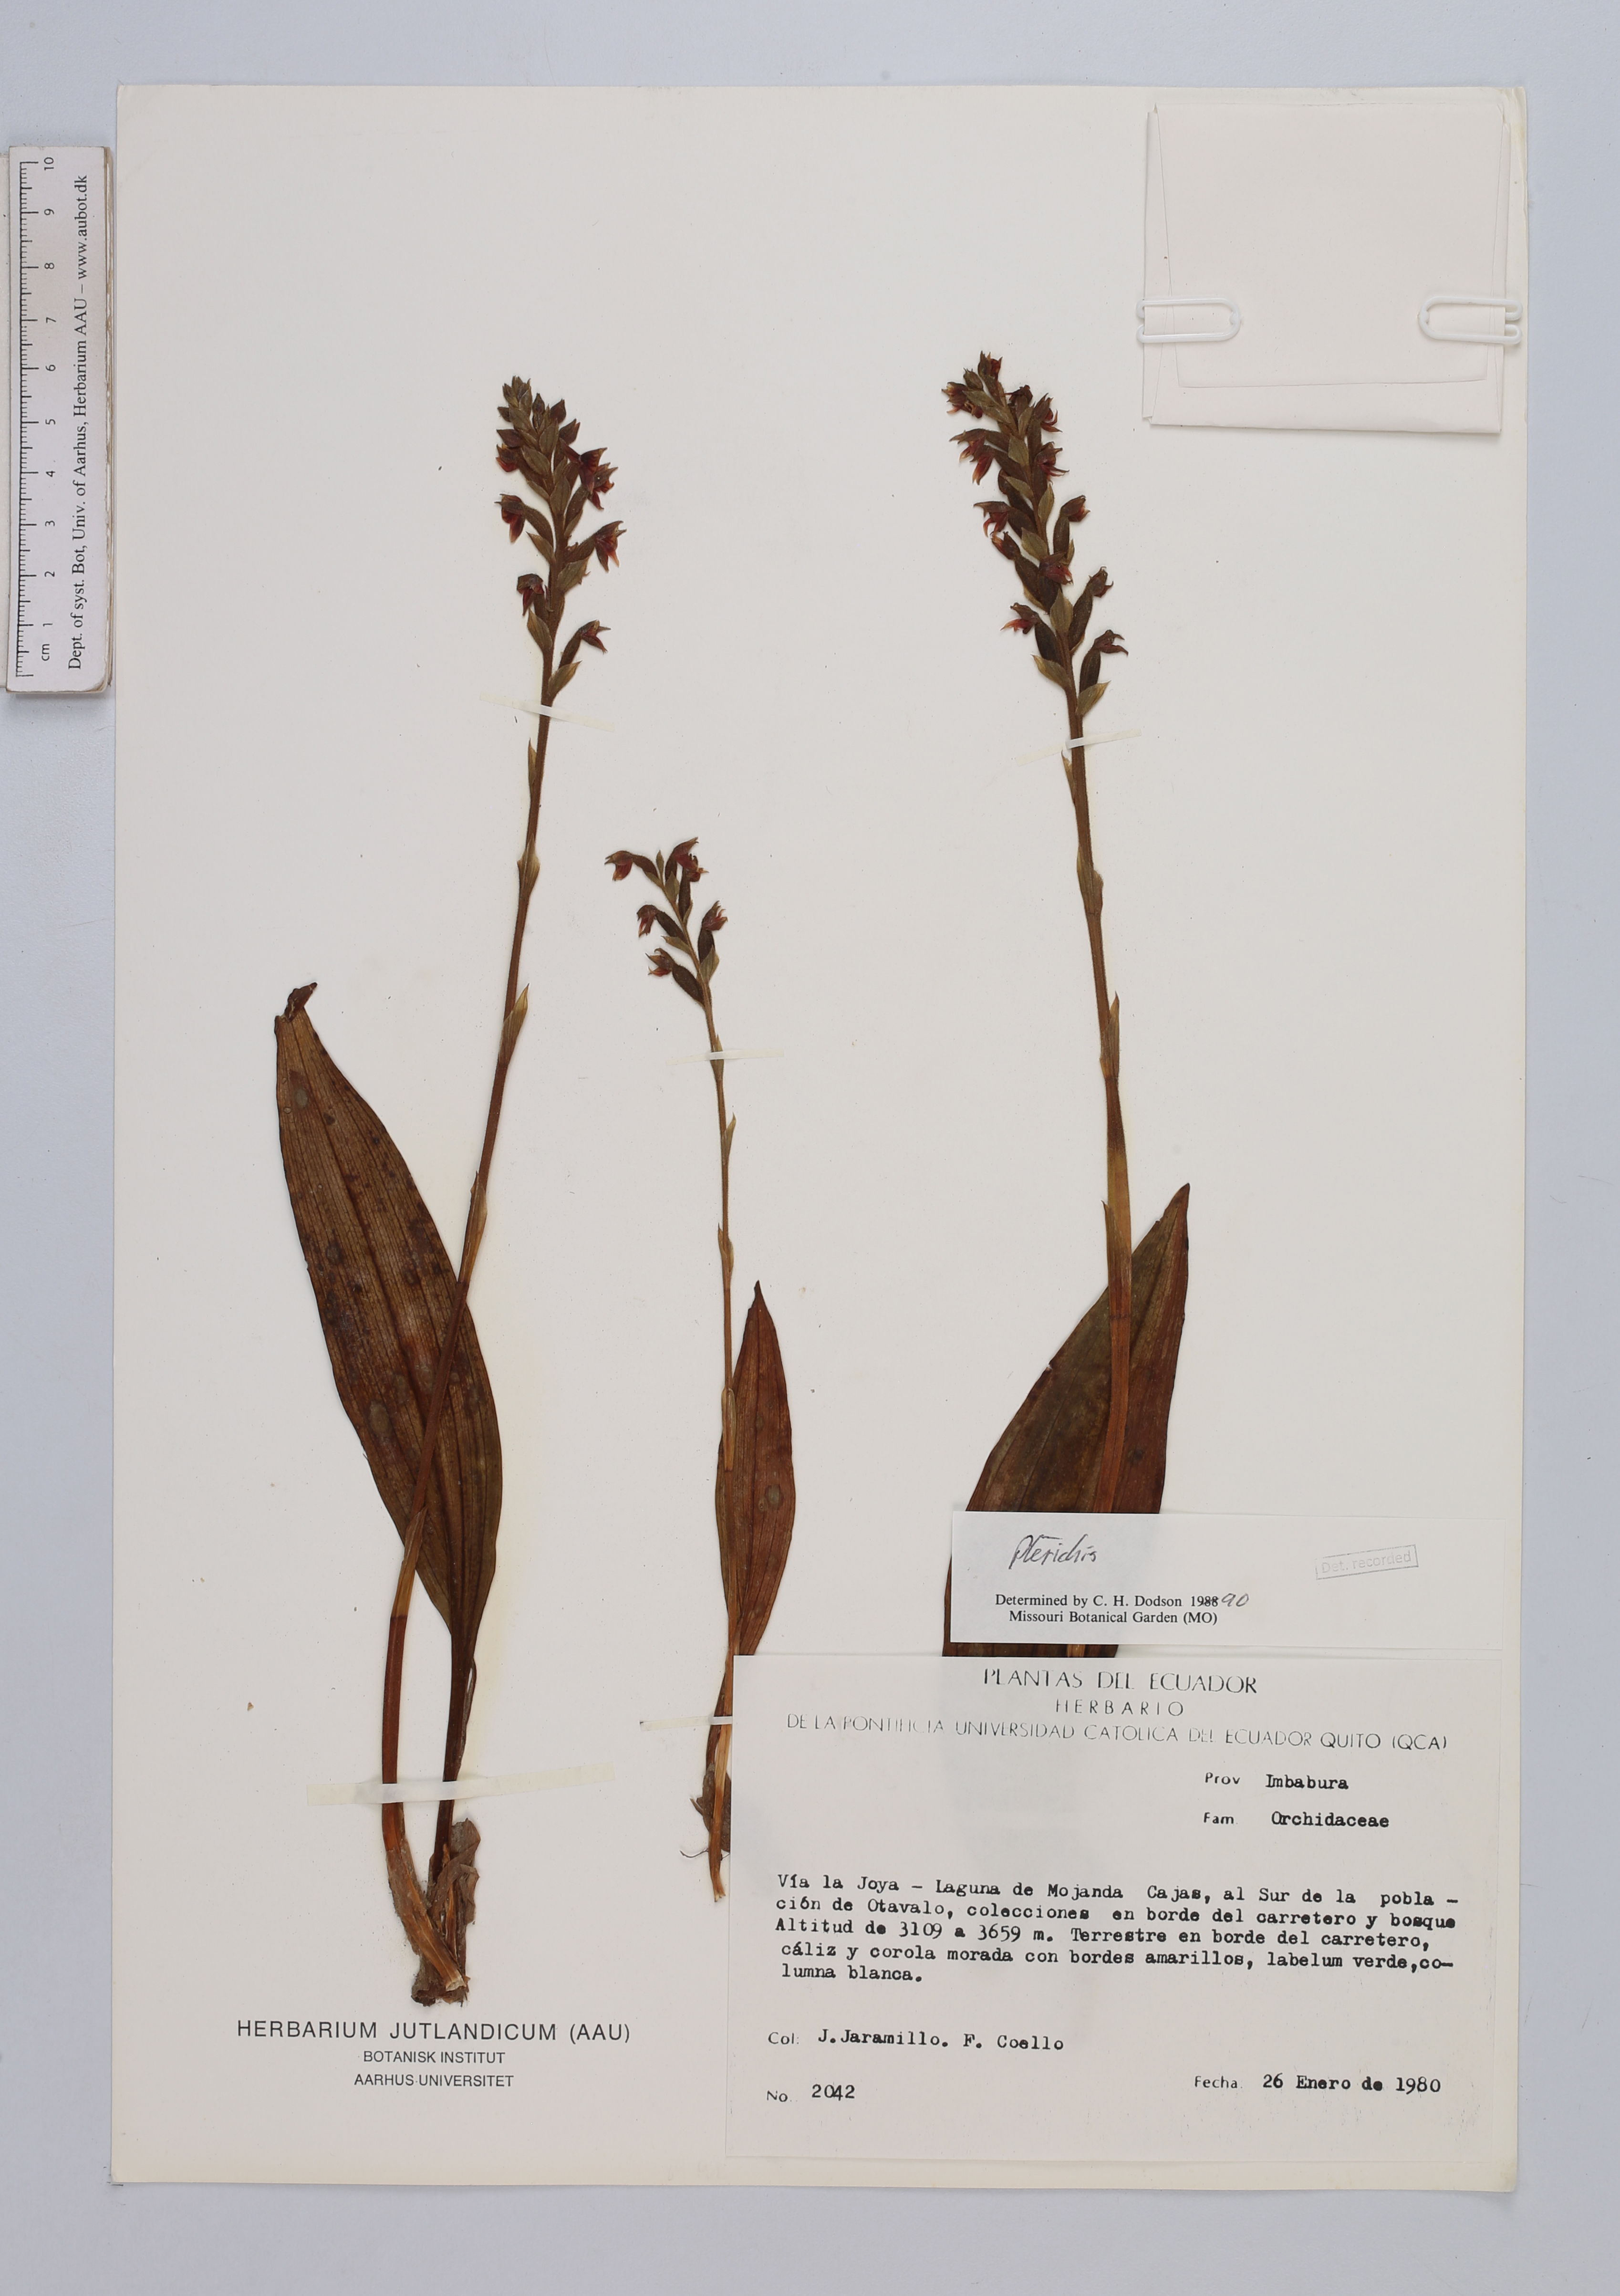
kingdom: Plantae
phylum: Tracheophyta
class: Liliopsida
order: Asparagales
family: Orchidaceae
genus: Pterichis
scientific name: Pterichis
